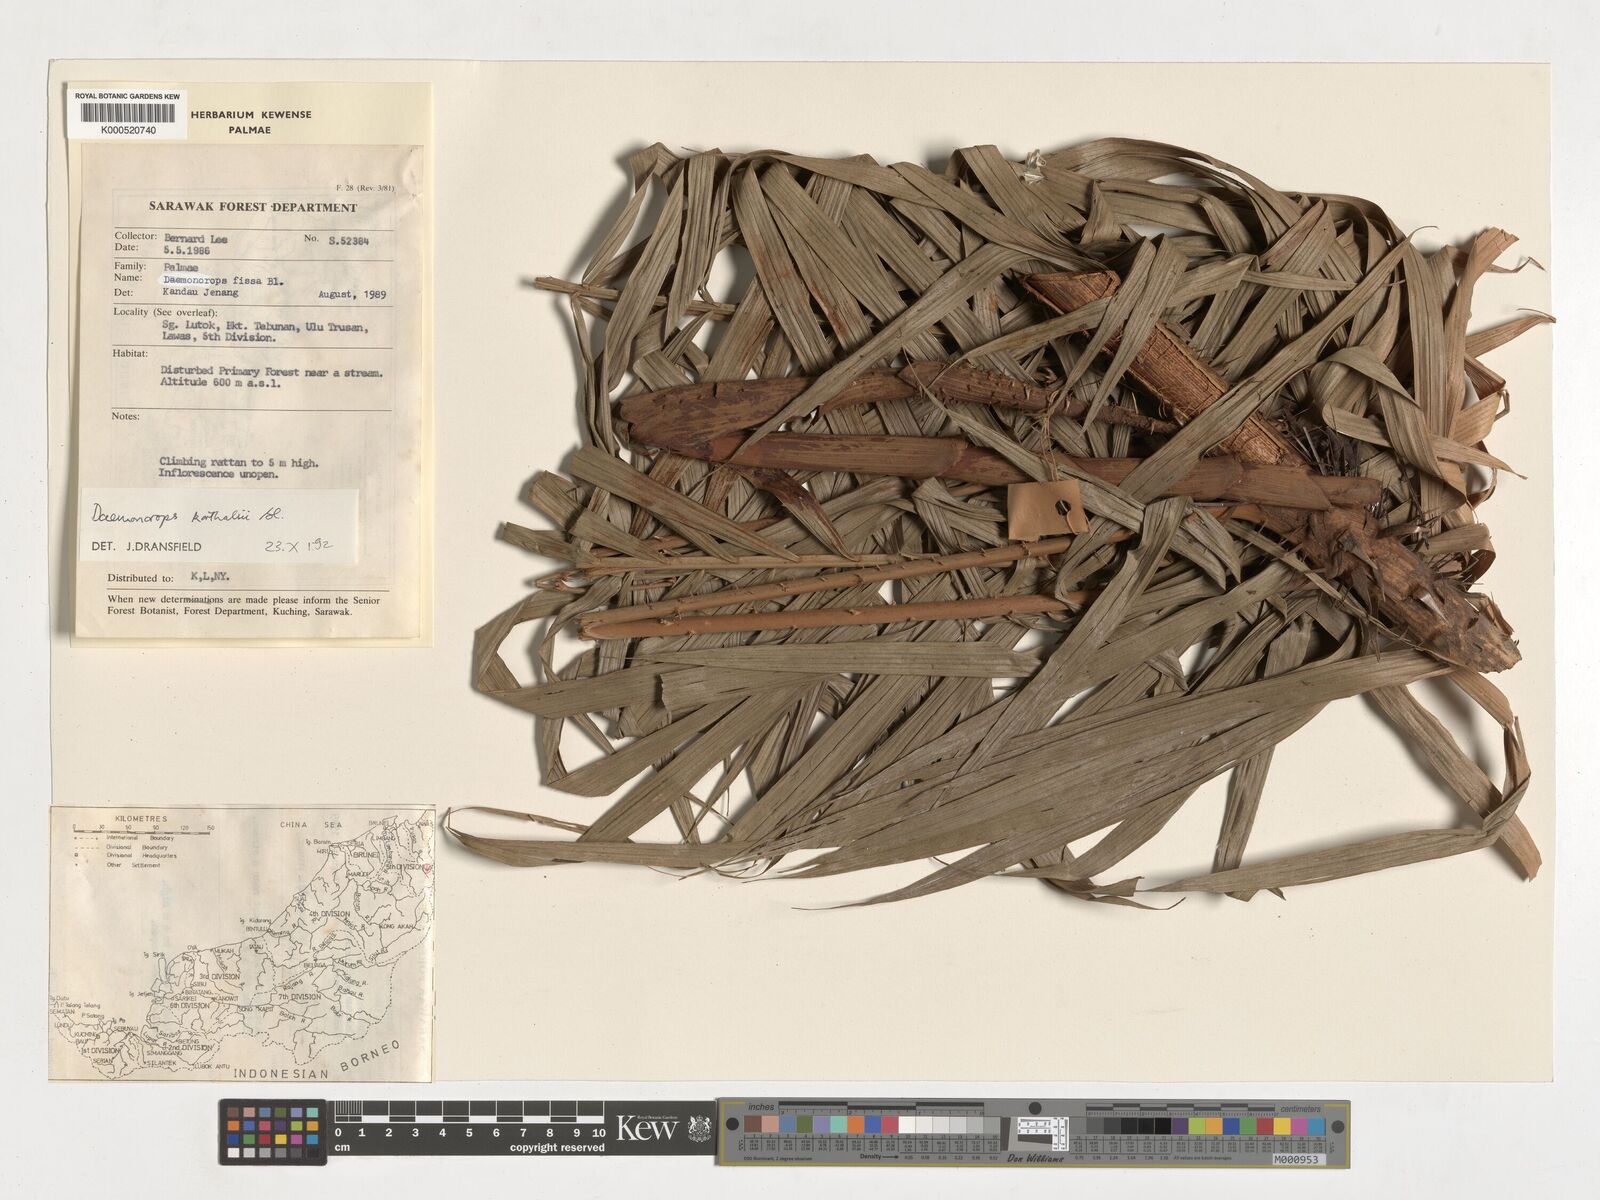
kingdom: Plantae
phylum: Tracheophyta
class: Liliopsida
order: Arecales
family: Arecaceae
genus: Calamus
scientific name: Calamus hirsutus
